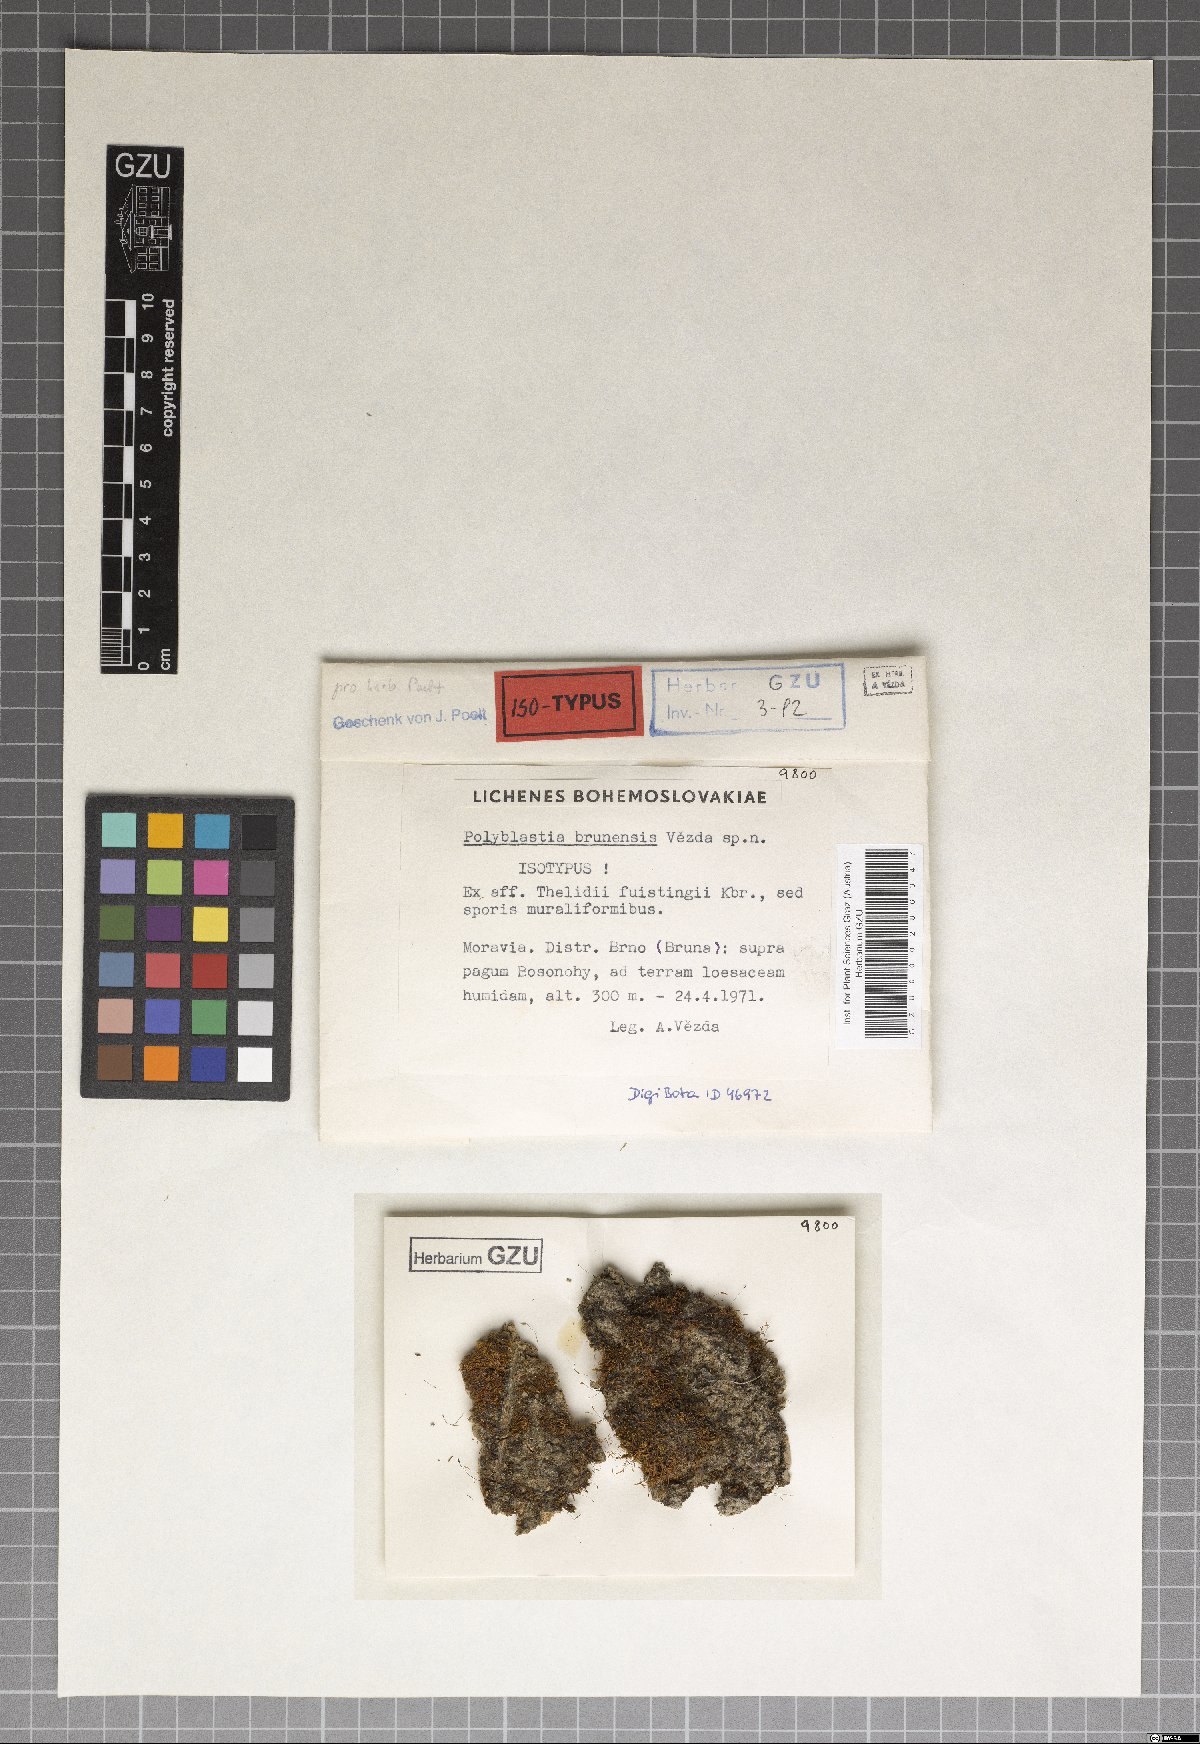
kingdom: Fungi
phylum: Ascomycota
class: Eurotiomycetes
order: Verrucariales
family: Verrucariaceae
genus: Polyblastia
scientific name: Polyblastia
